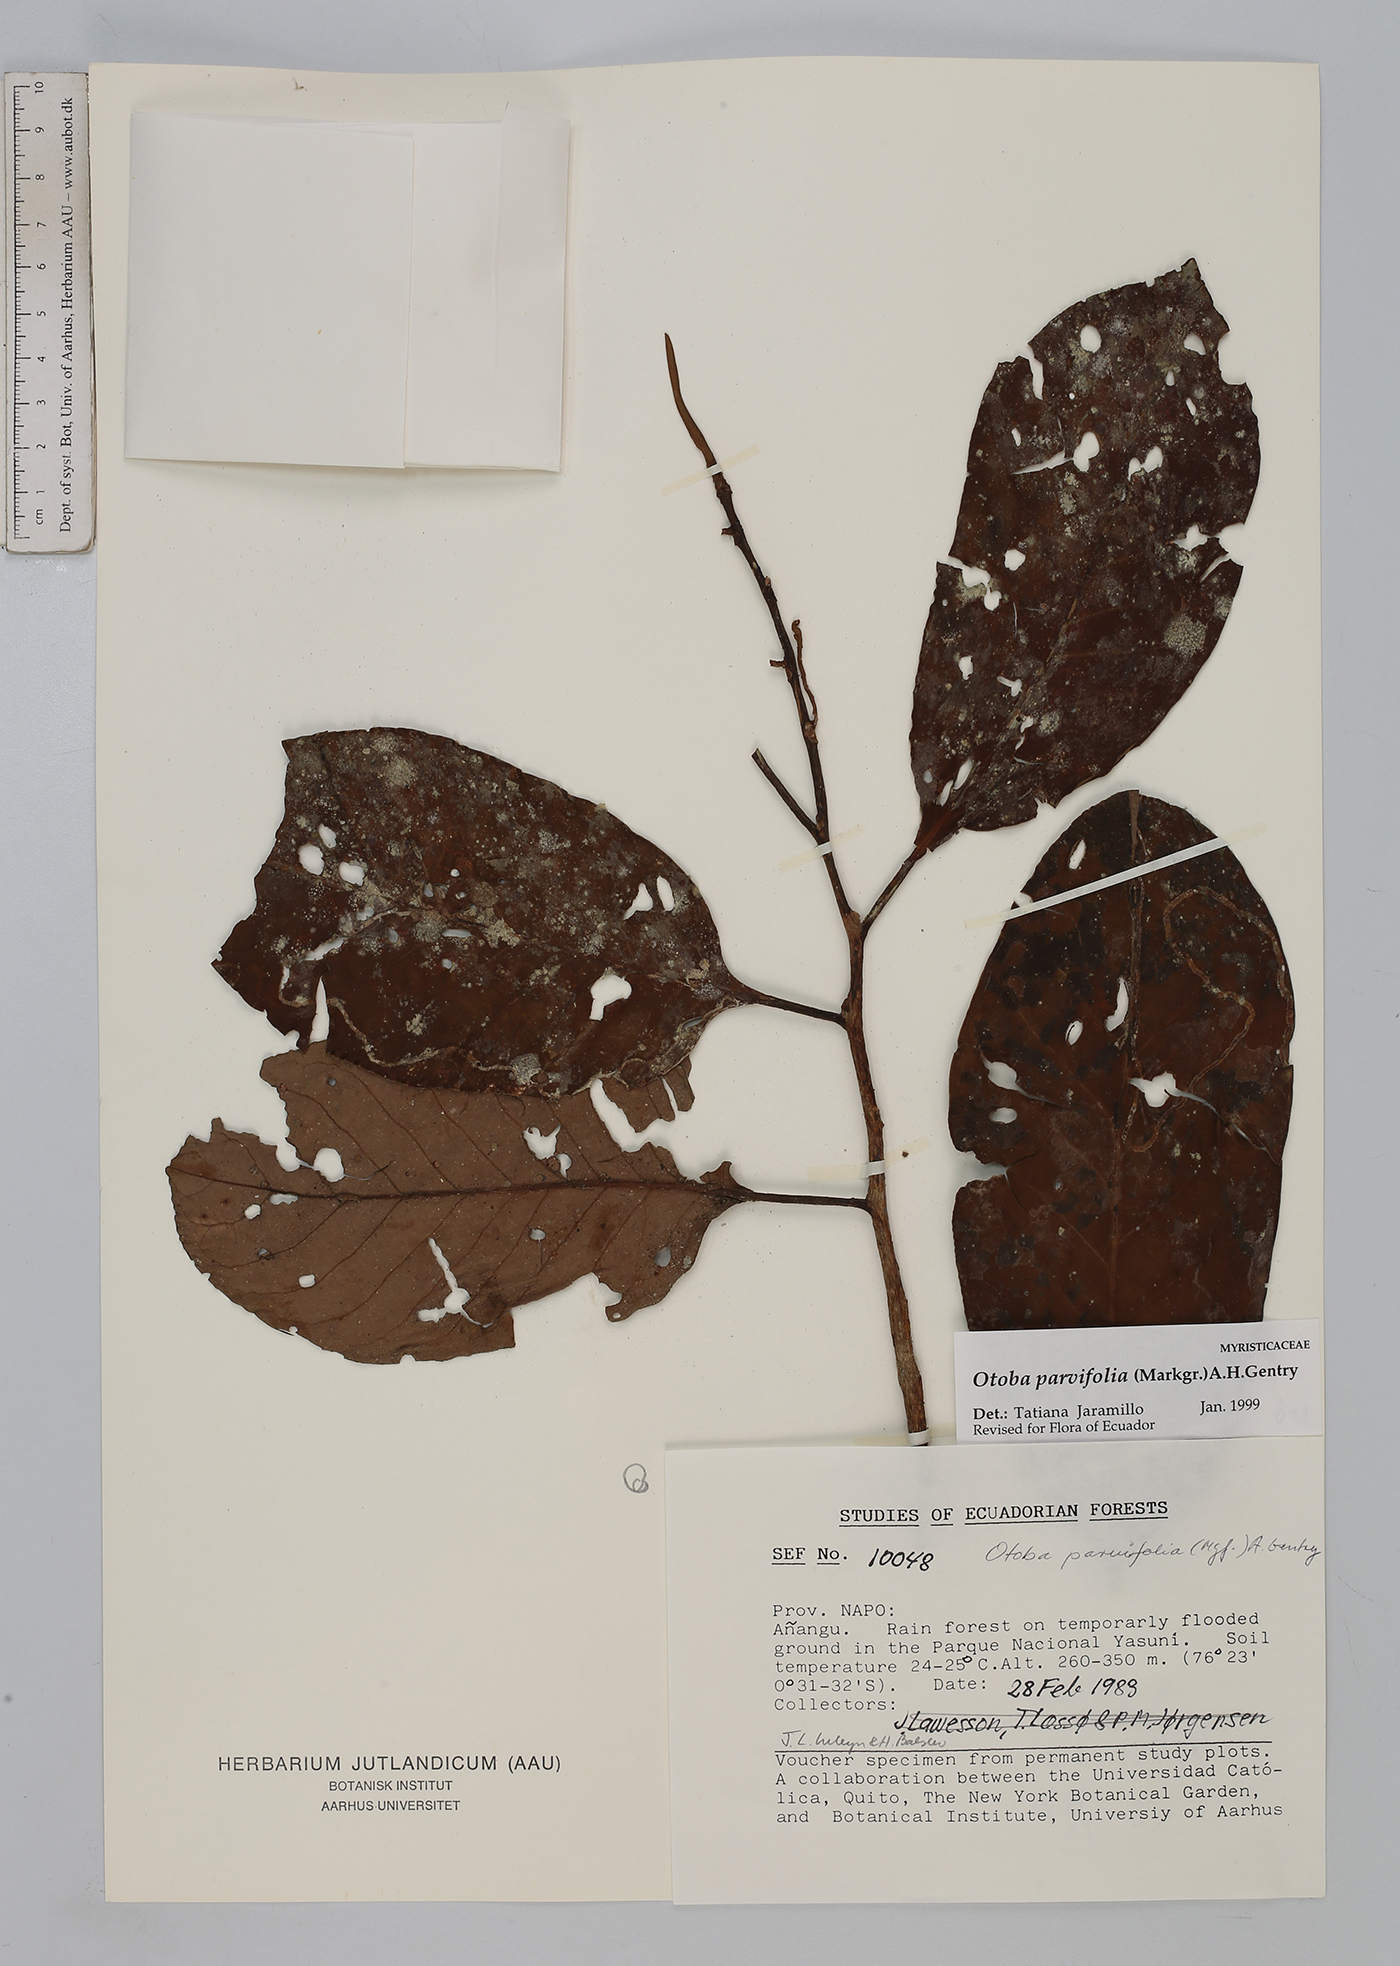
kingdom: Plantae
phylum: Tracheophyta
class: Magnoliopsida
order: Magnoliales
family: Myristicaceae
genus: Otoba
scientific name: Otoba parvifolia
